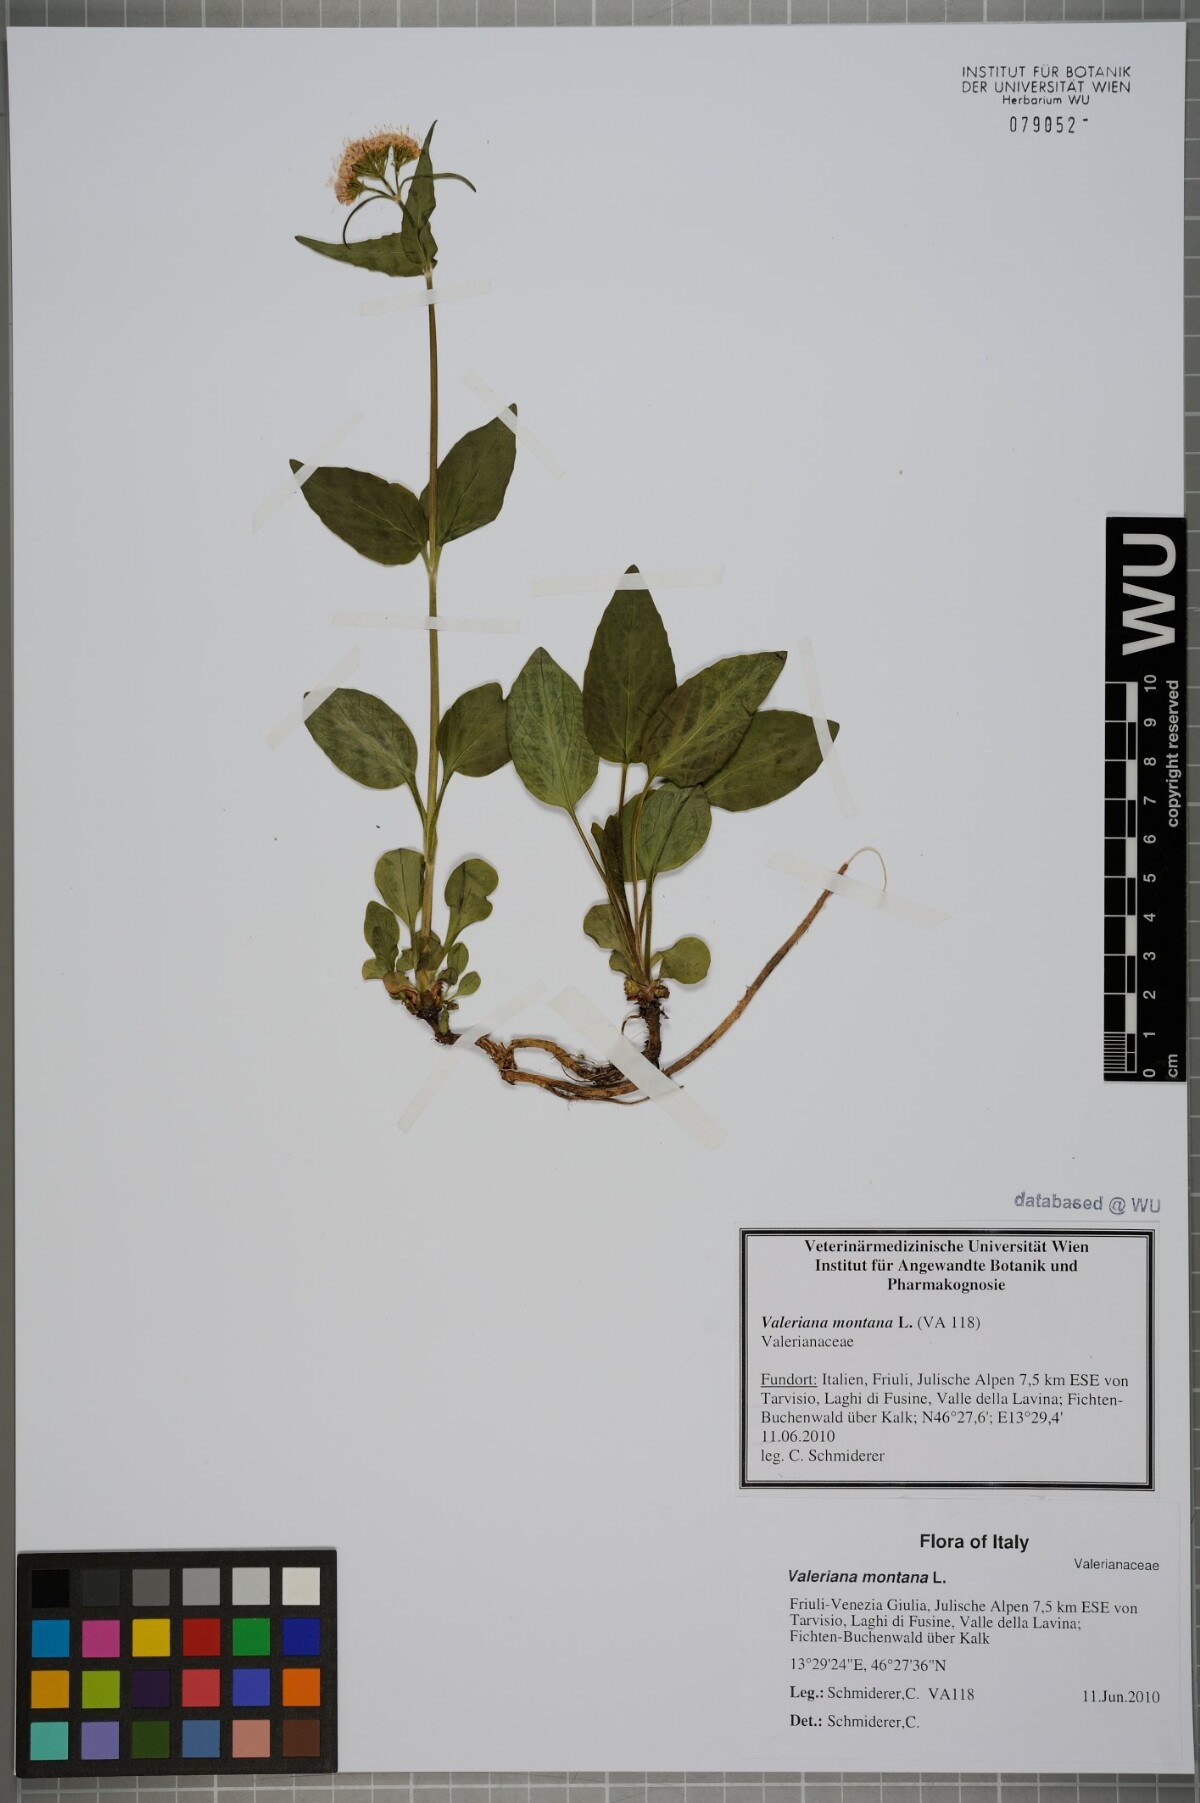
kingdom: Plantae
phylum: Tracheophyta
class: Magnoliopsida
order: Dipsacales
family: Caprifoliaceae
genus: Valeriana
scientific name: Valeriana montana
